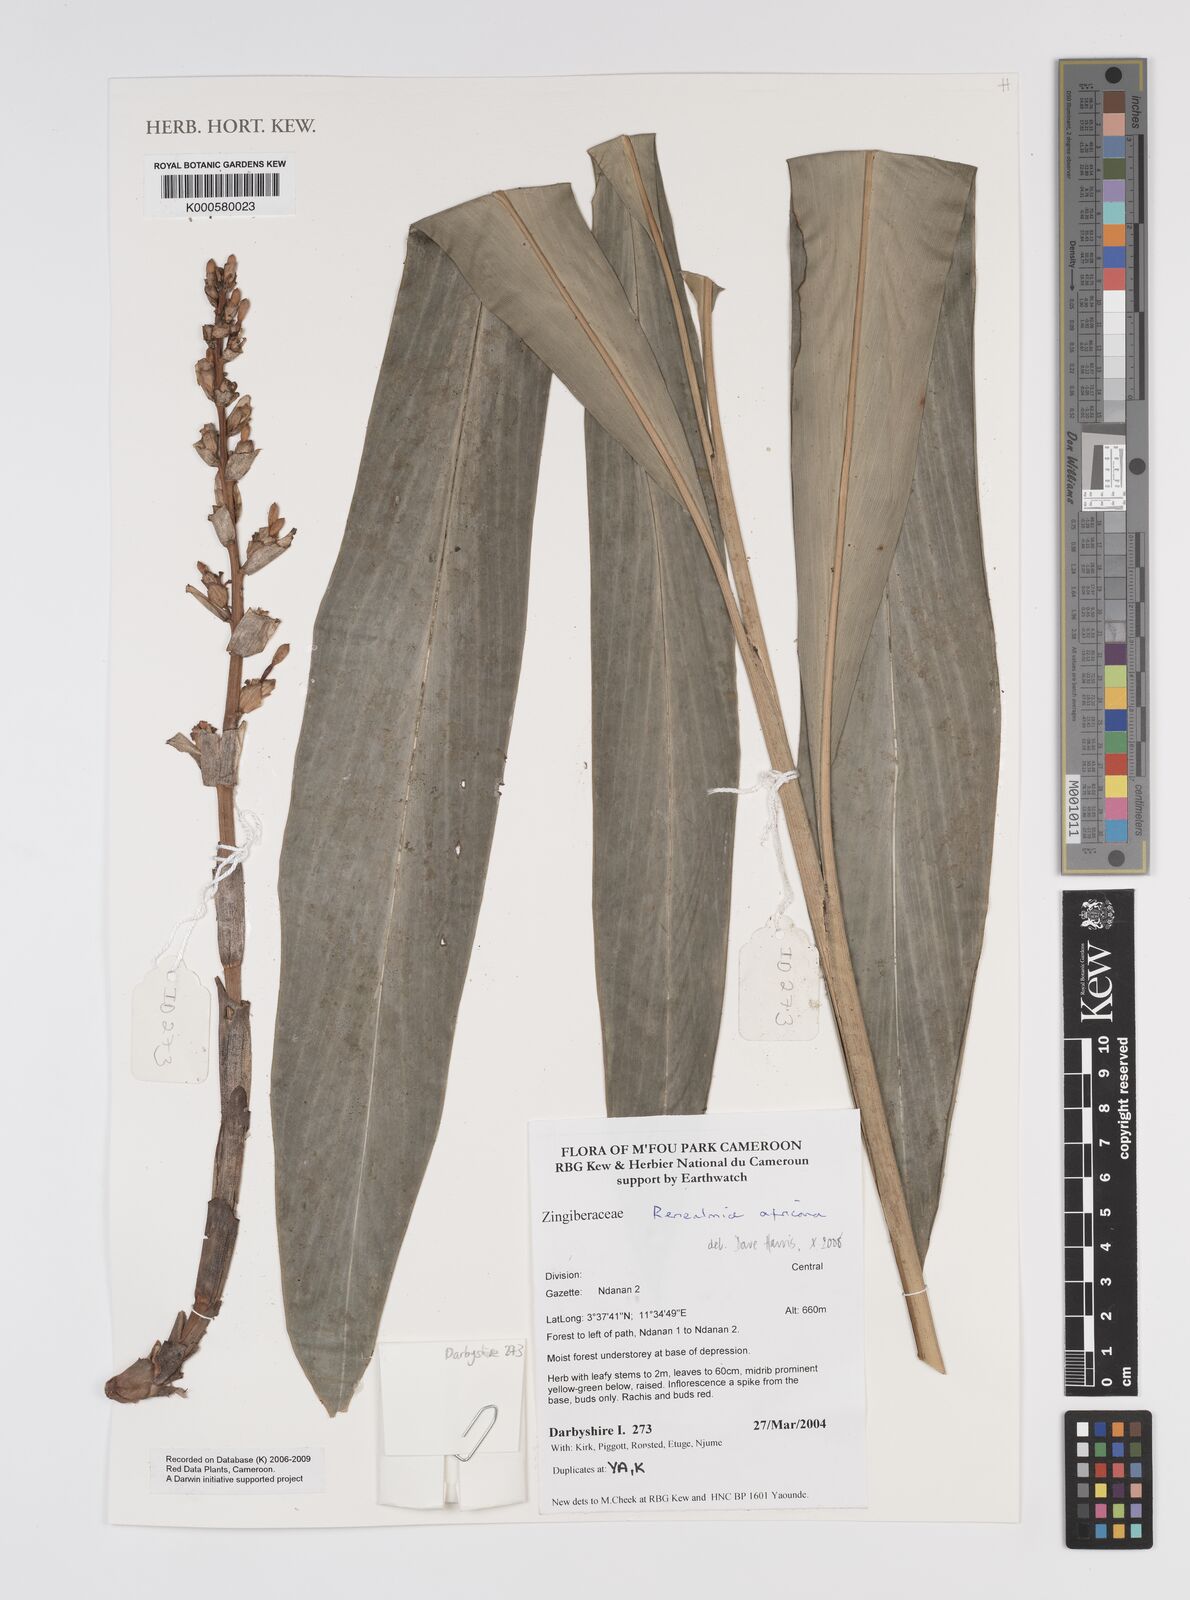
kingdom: Plantae
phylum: Tracheophyta
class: Liliopsida
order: Zingiberales
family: Zingiberaceae
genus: Renealmia
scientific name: Renealmia africana
